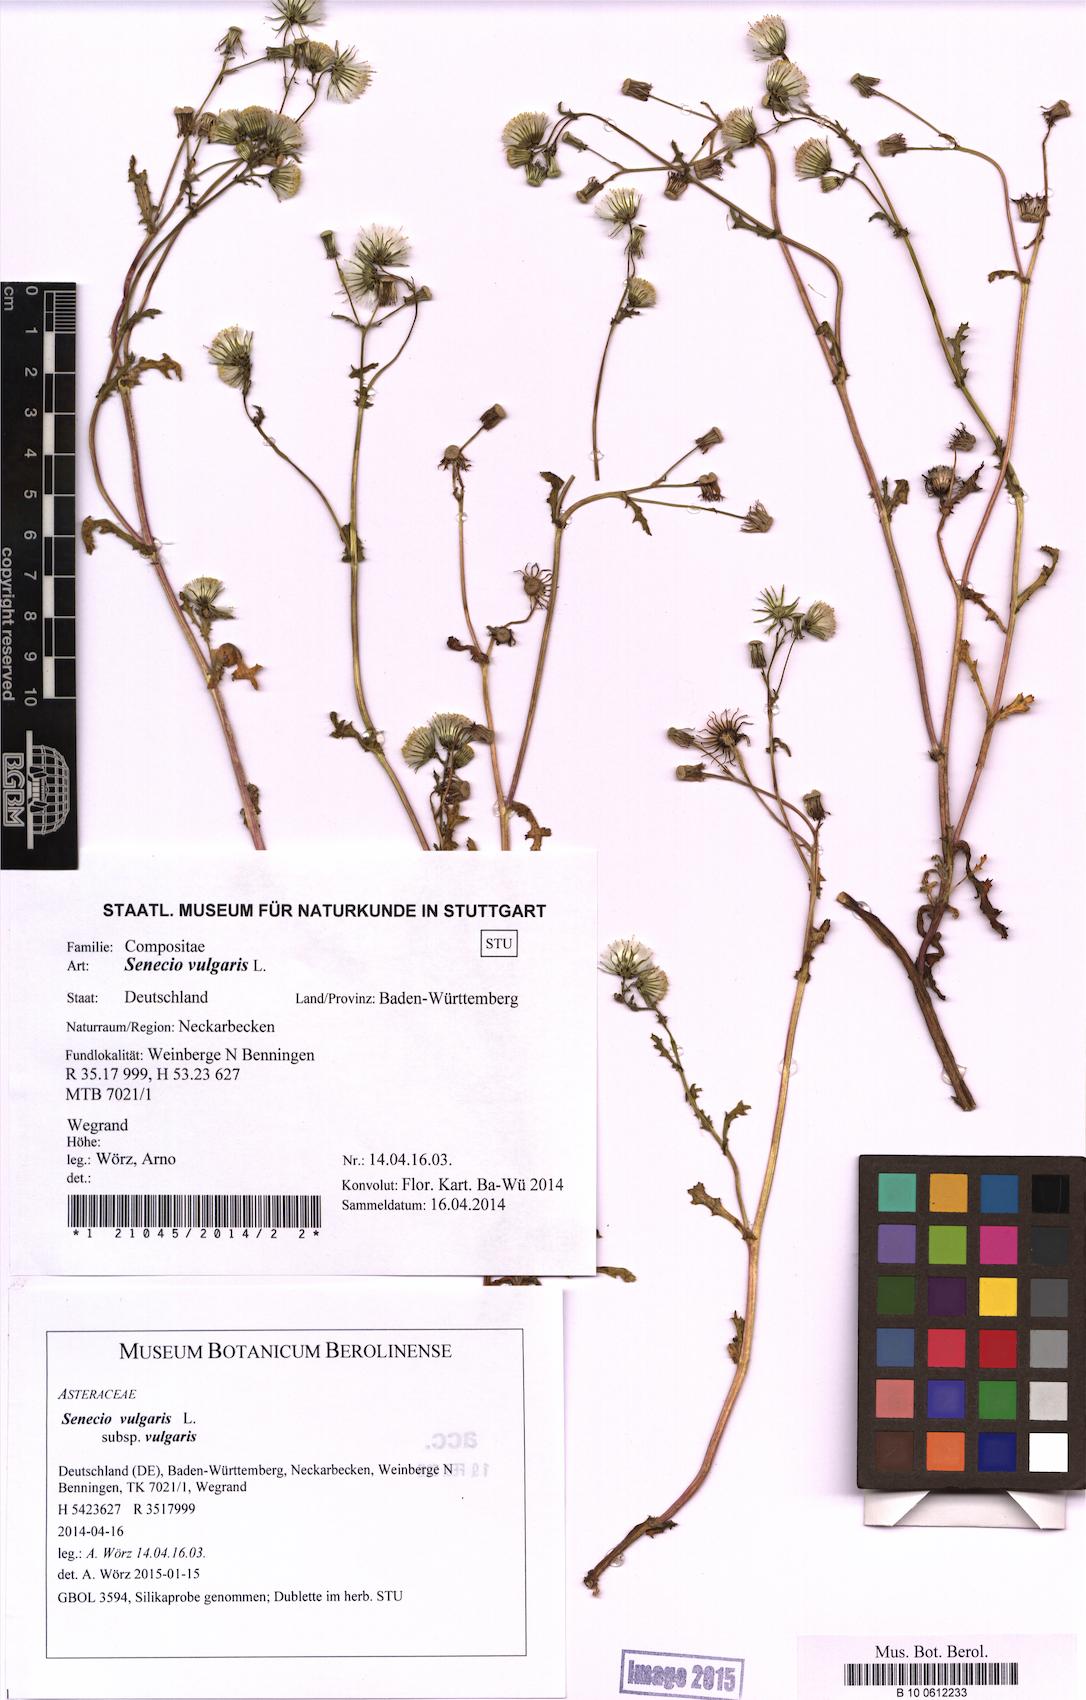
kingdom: Plantae
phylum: Tracheophyta
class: Magnoliopsida
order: Asterales
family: Asteraceae
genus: Senecio
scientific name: Senecio vulgaris
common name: Old-man-in-the-spring
